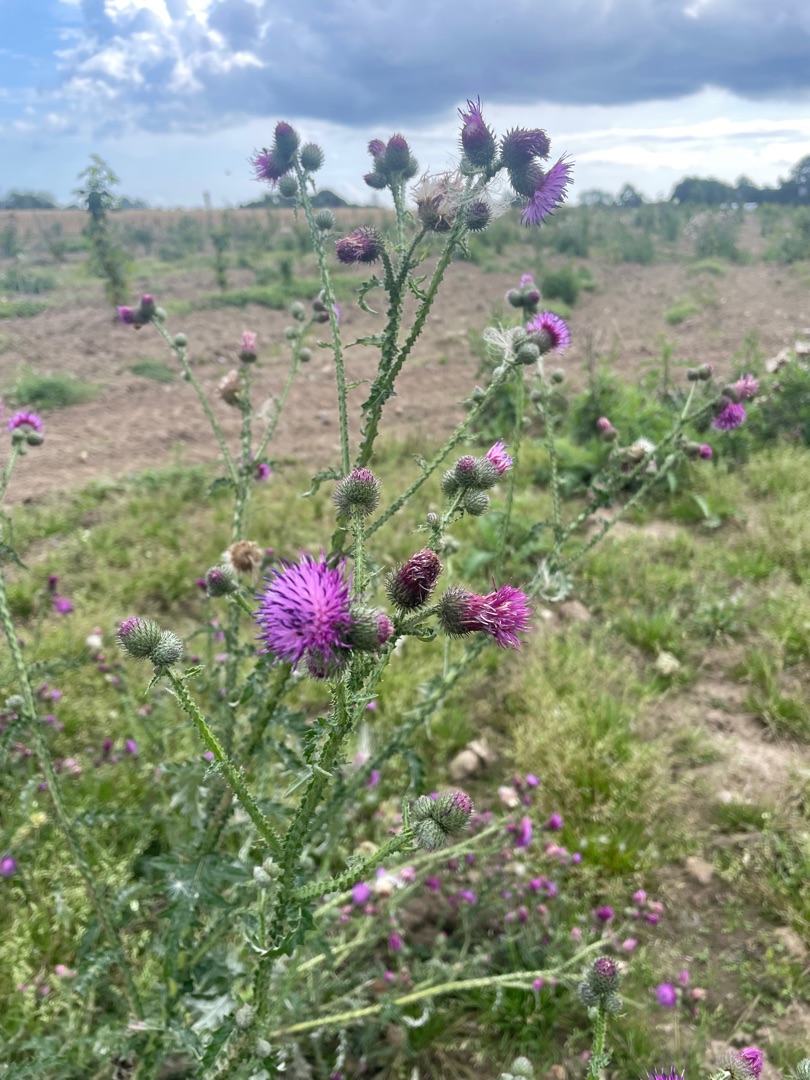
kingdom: Plantae
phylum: Tracheophyta
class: Magnoliopsida
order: Asterales
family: Asteraceae
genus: Carduus
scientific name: Carduus crispus
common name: Kruset tidsel
